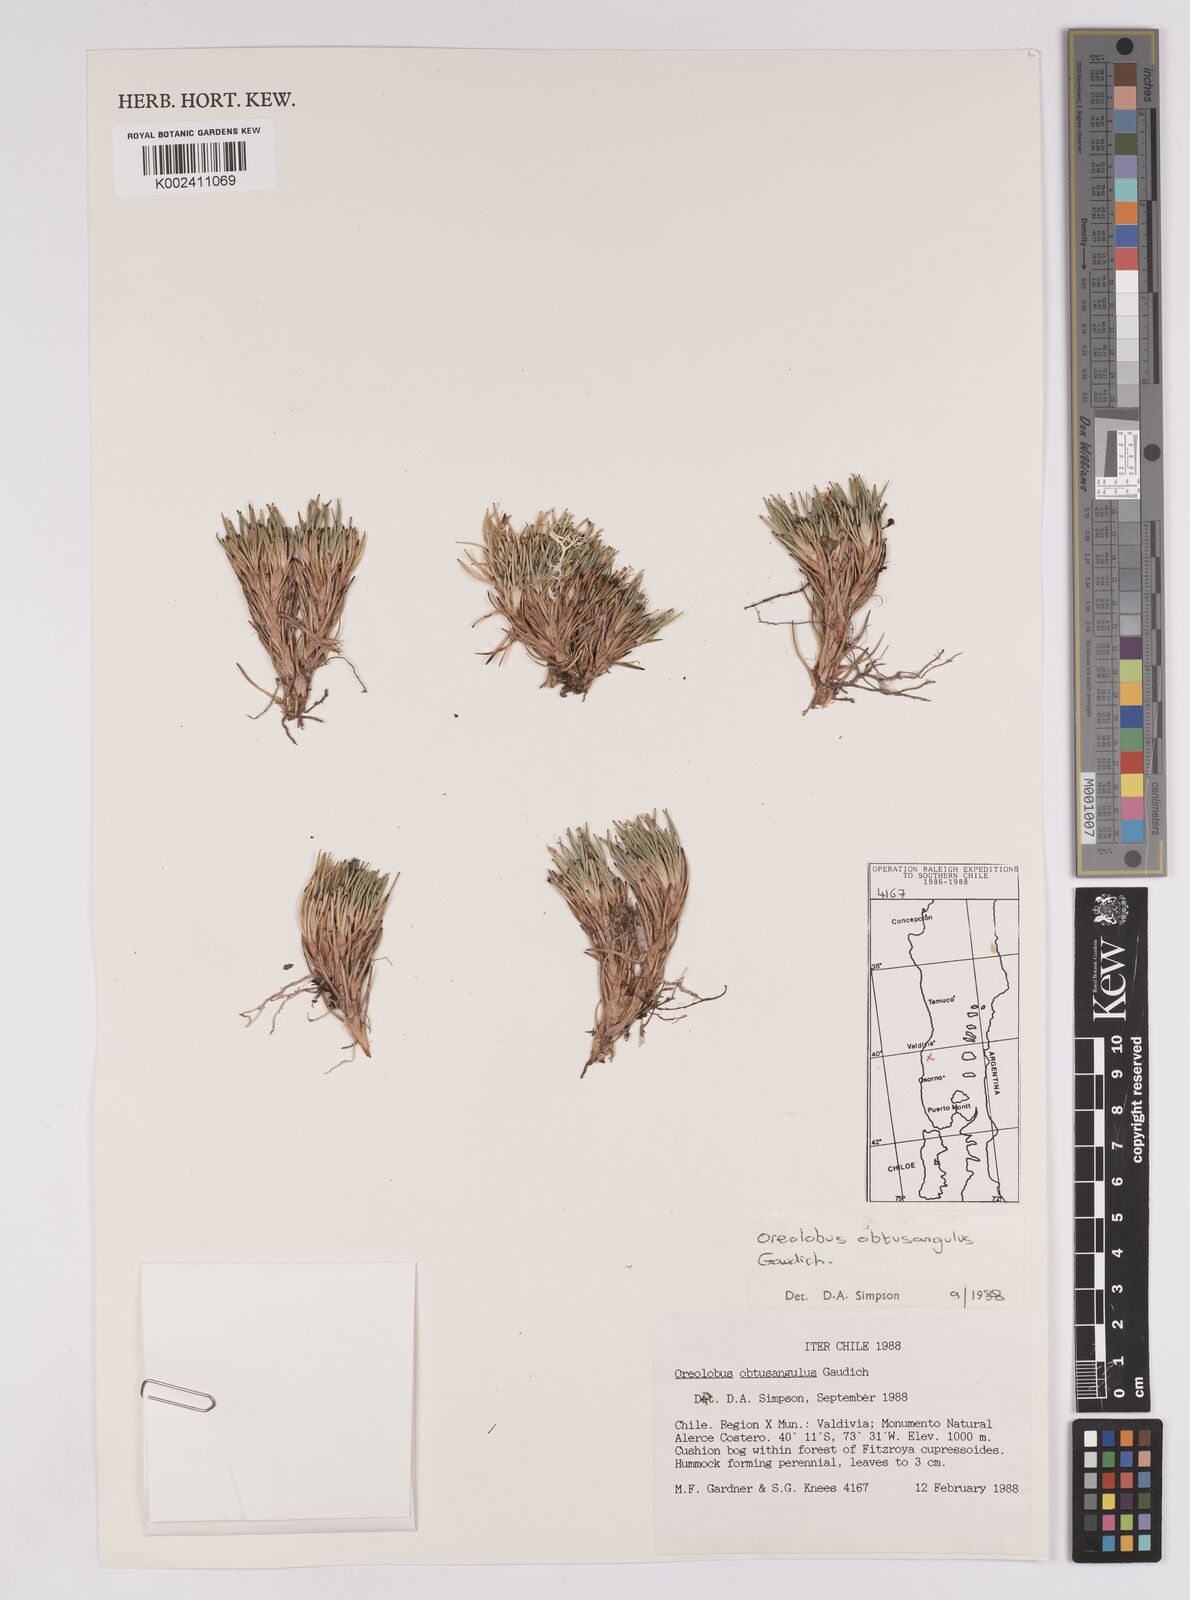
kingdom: Plantae
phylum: Tracheophyta
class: Liliopsida
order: Poales
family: Cyperaceae
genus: Oreobolus
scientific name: Oreobolus obtusangulus
